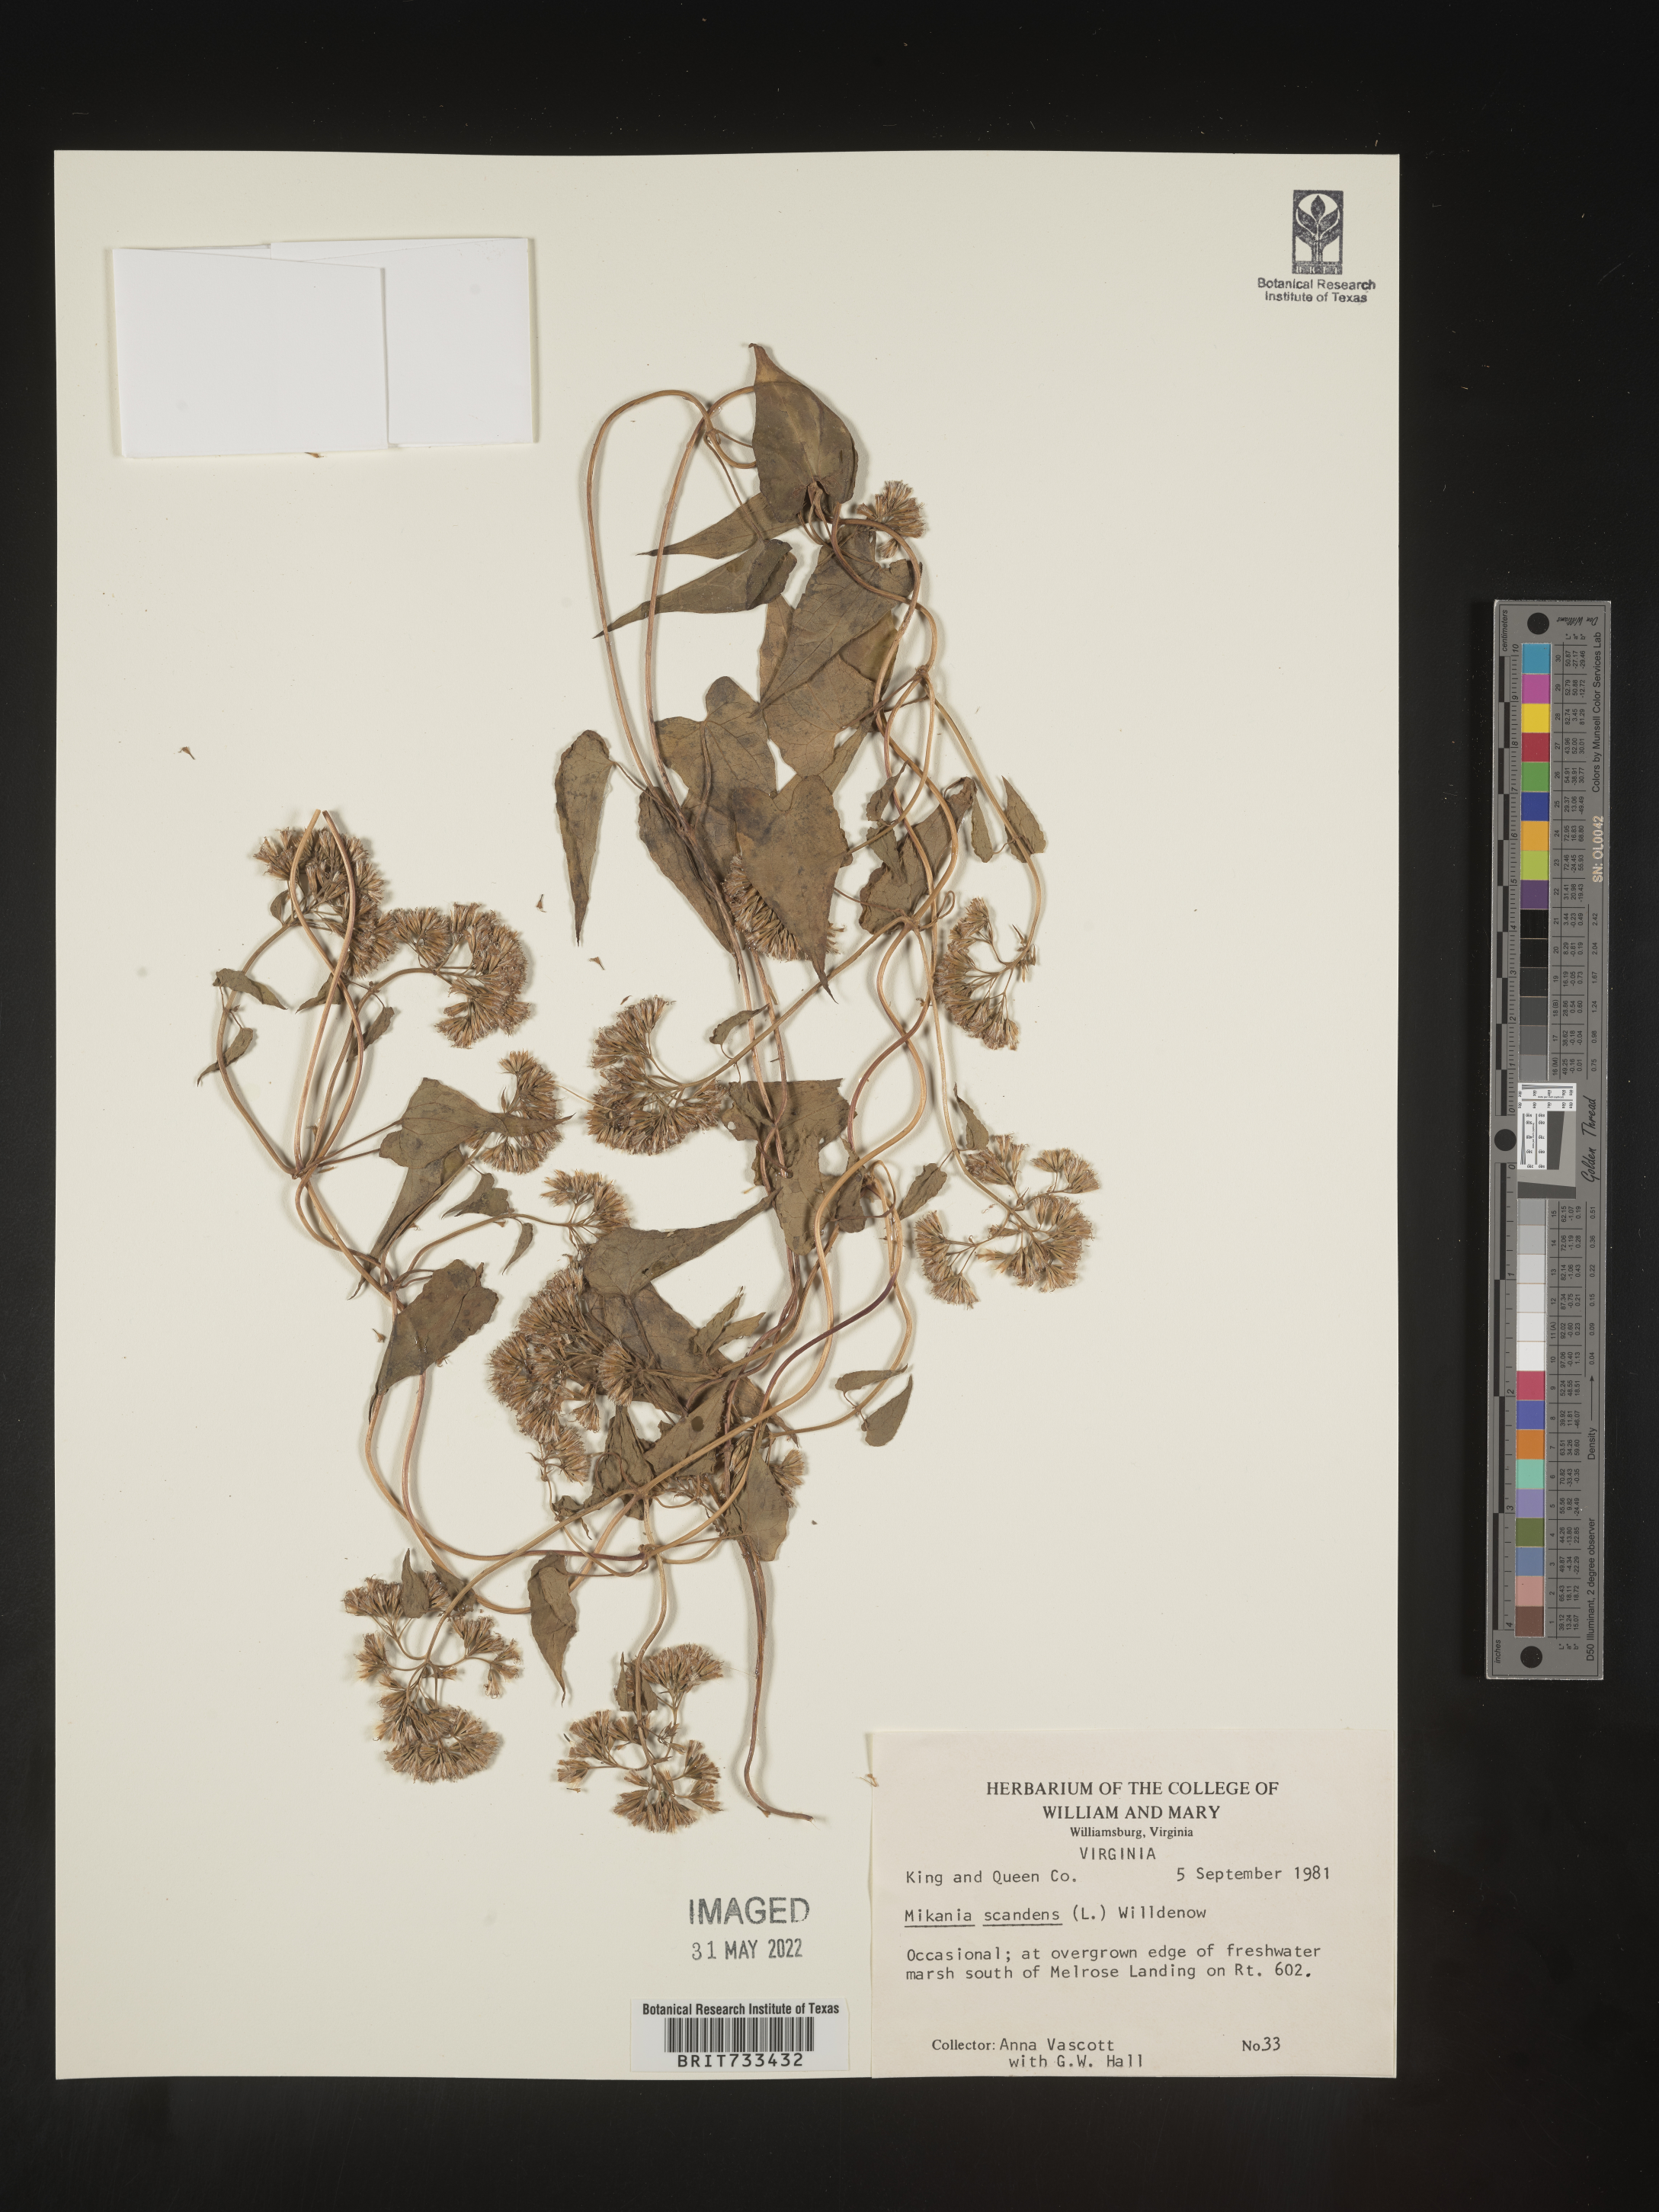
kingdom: Plantae
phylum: Tracheophyta
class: Magnoliopsida
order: Asterales
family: Asteraceae
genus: Mikania
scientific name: Mikania scandens
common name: Climbing hempvine
